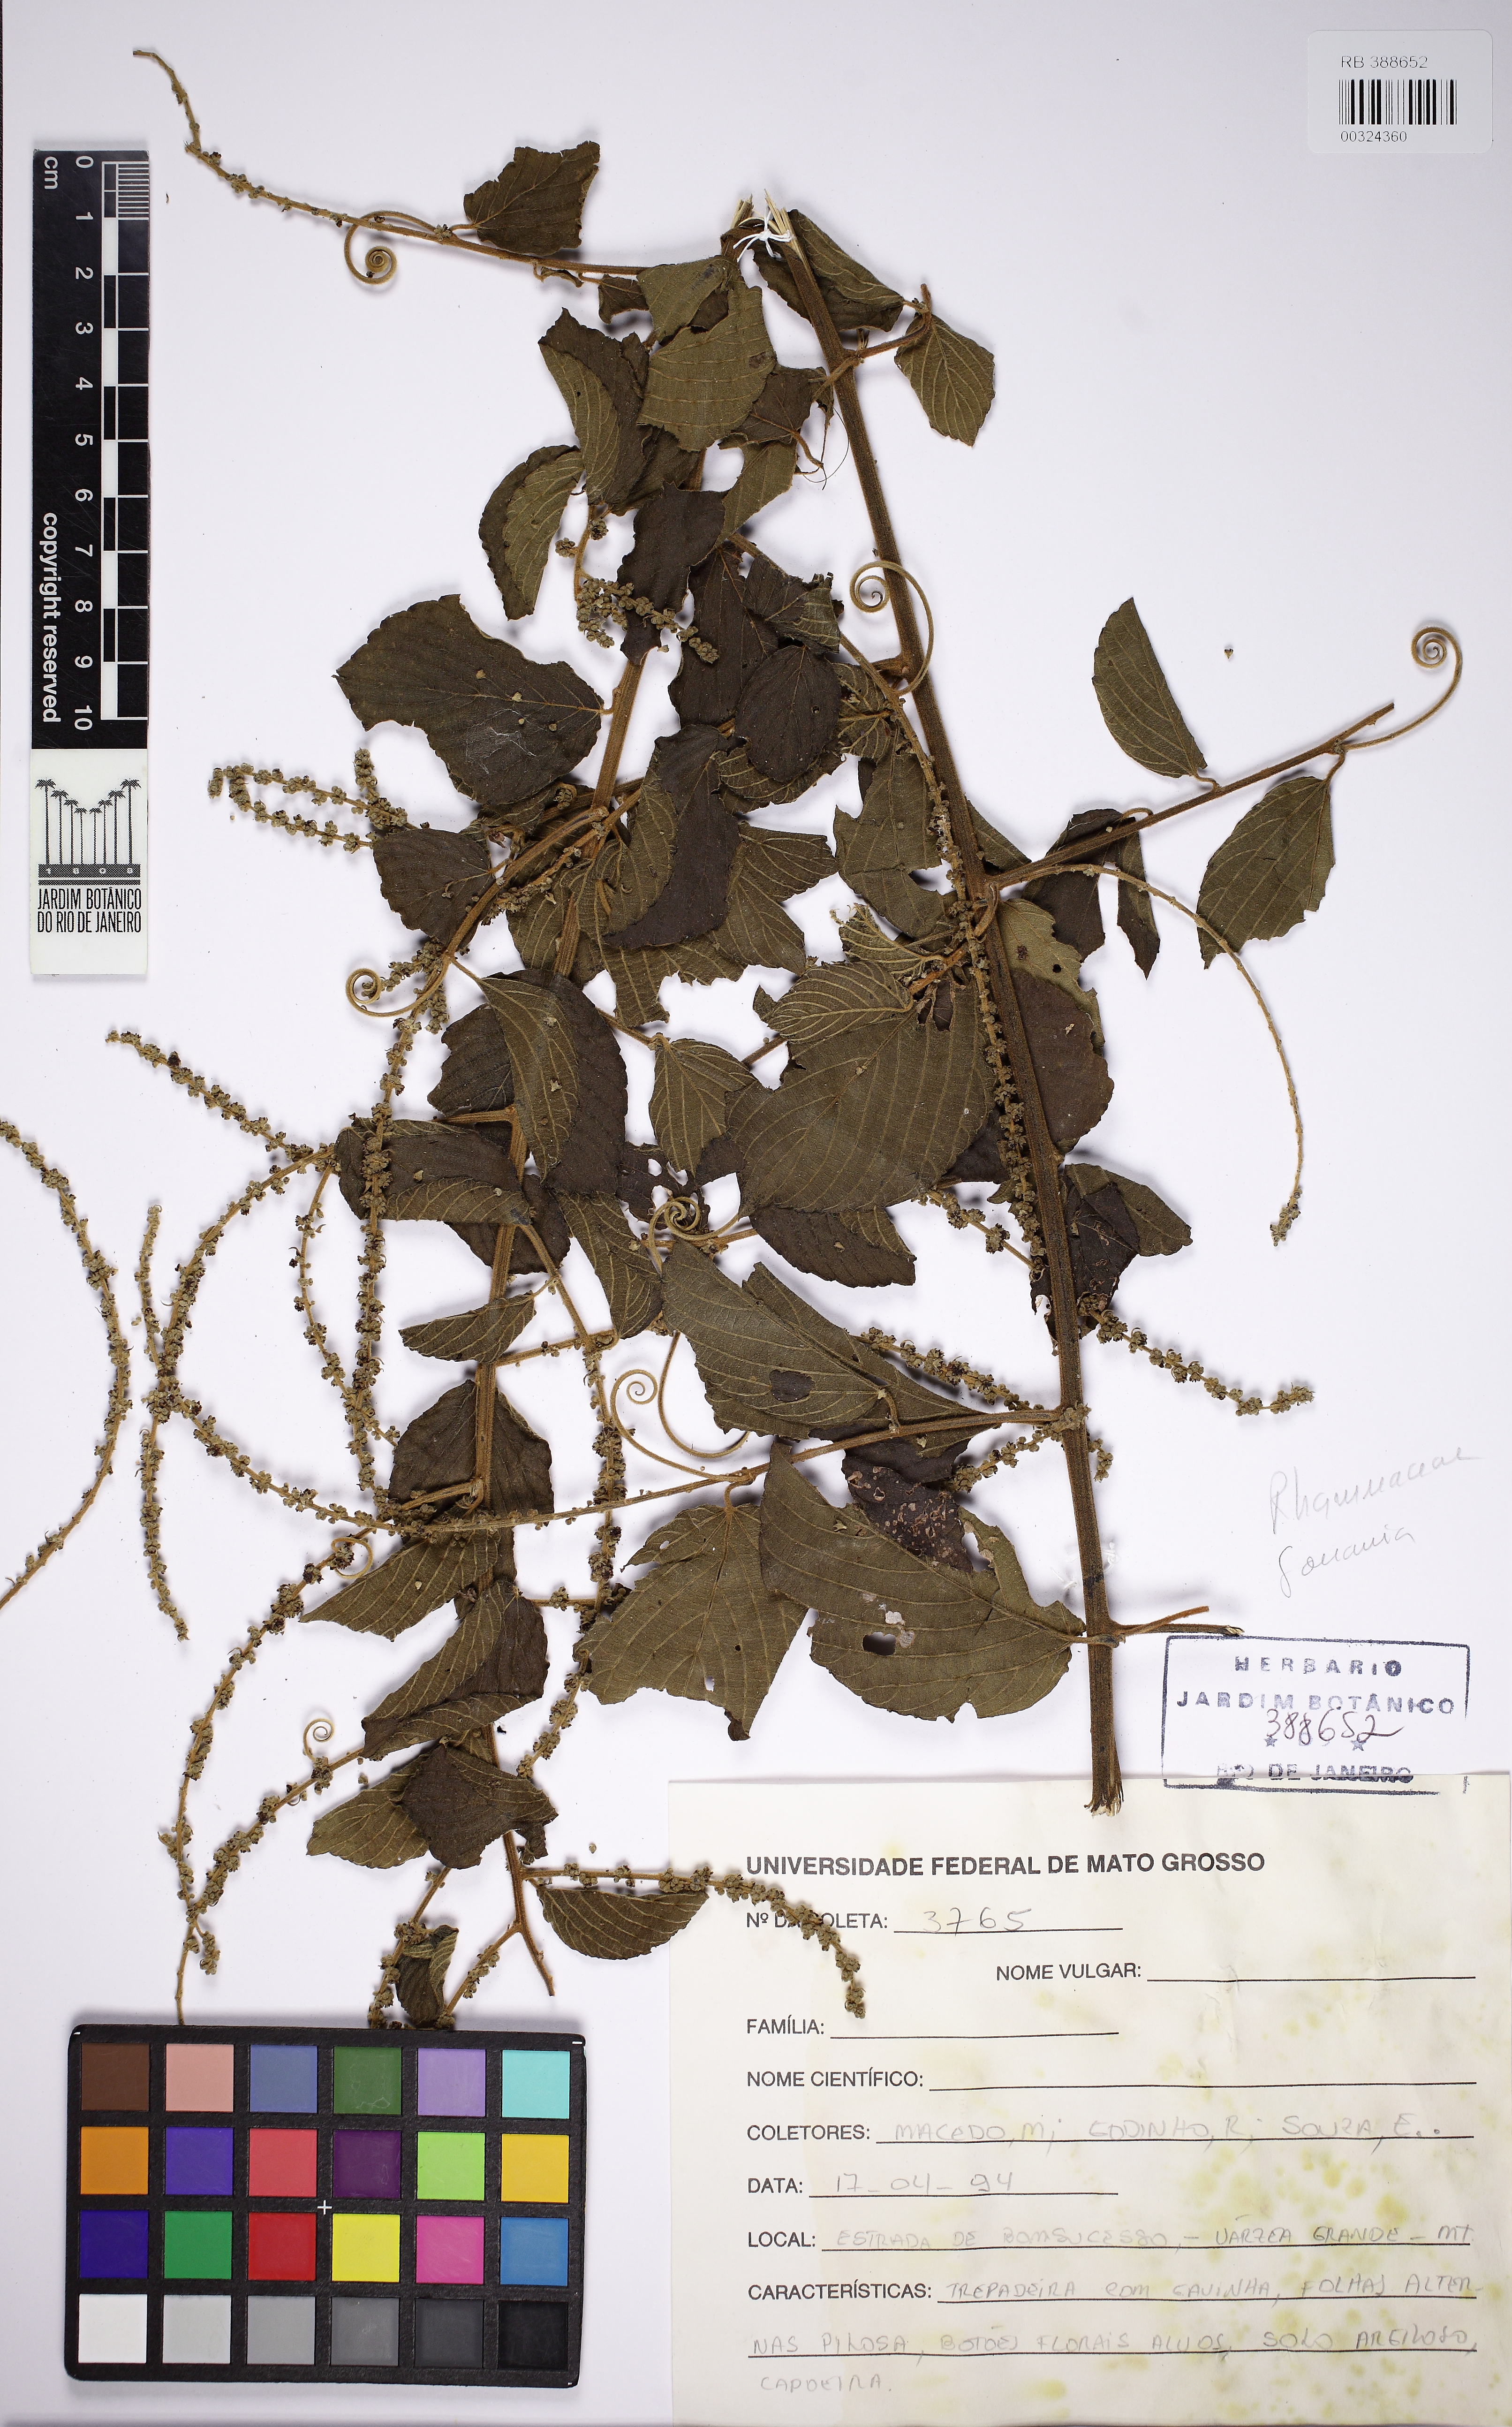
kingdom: Plantae
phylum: Tracheophyta
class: Magnoliopsida
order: Rosales
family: Rhamnaceae
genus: Gouania
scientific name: Gouania
